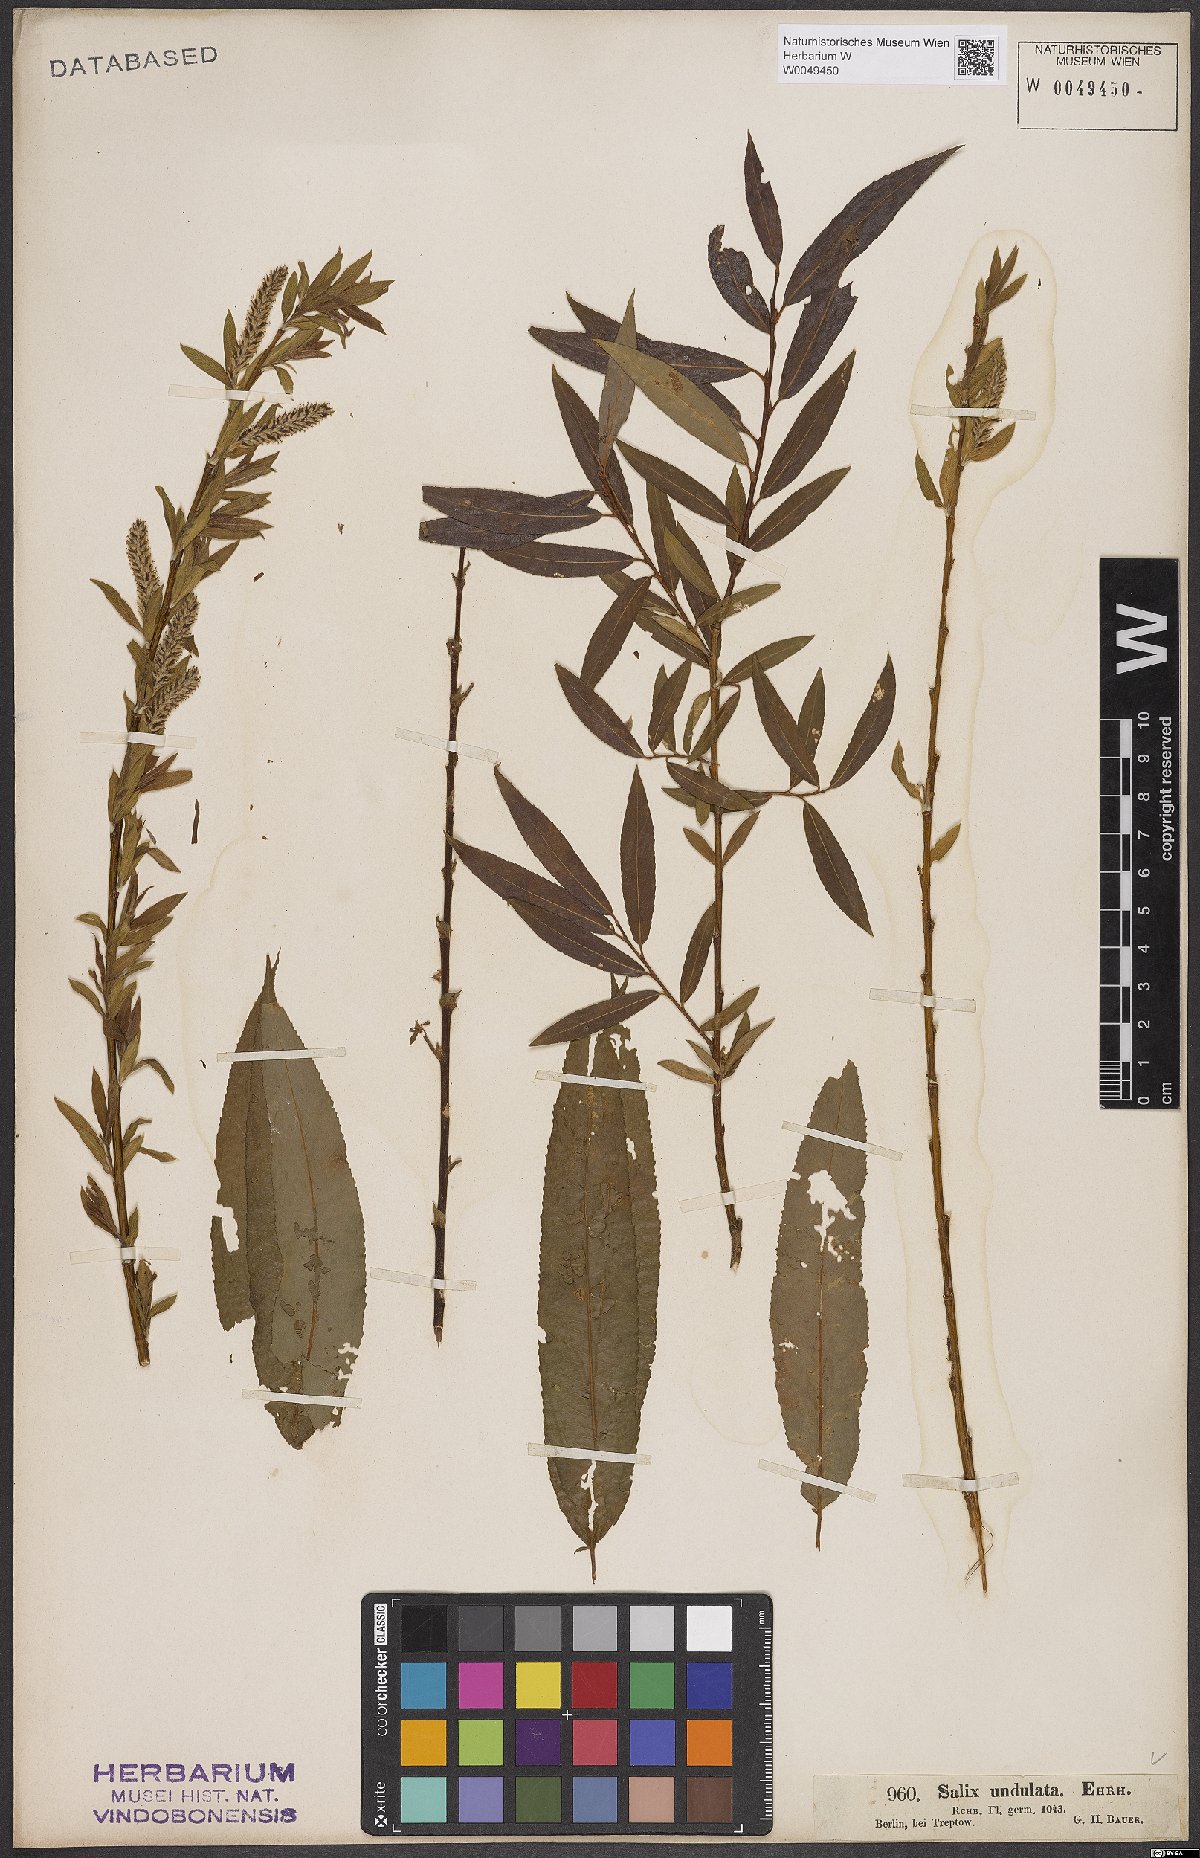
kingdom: Plantae
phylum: Tracheophyta
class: Magnoliopsida
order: Malpighiales
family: Salicaceae
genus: Salix
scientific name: Salix undulata
